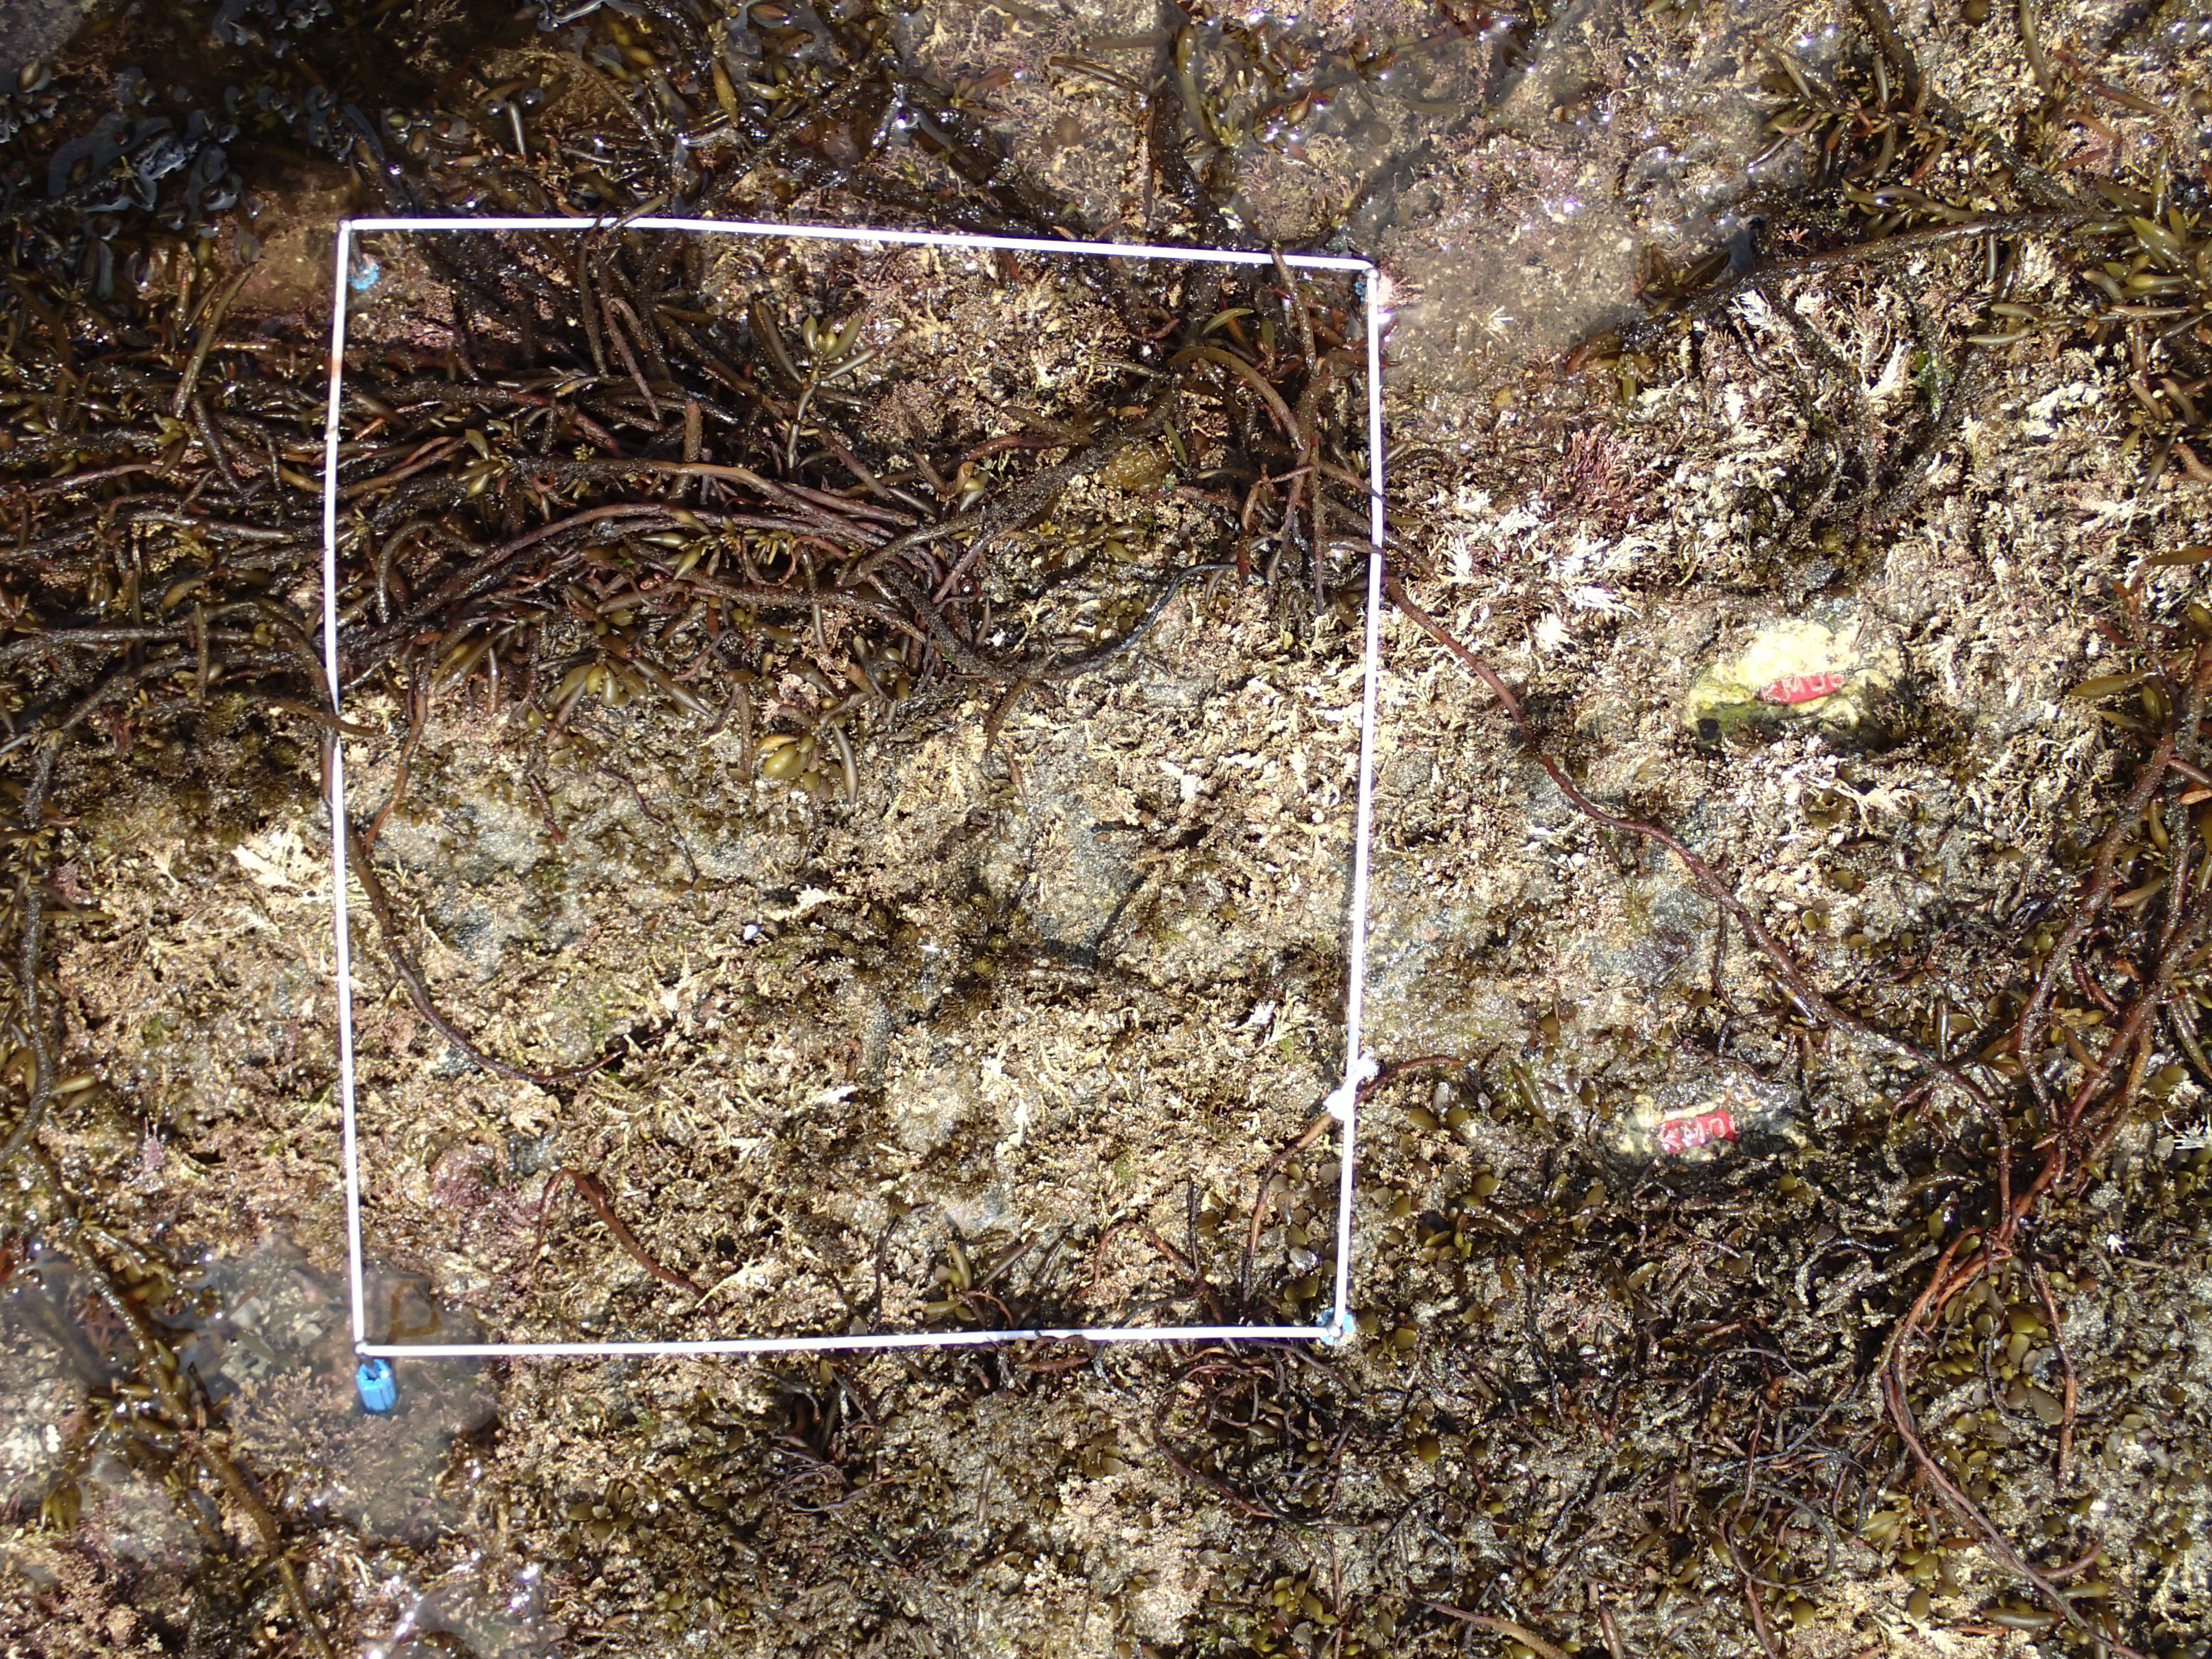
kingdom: Chromista
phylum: Ochrophyta
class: Phaeophyceae
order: Fucales
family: Sargassaceae
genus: Sargassum
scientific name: Sargassum fusiforme
